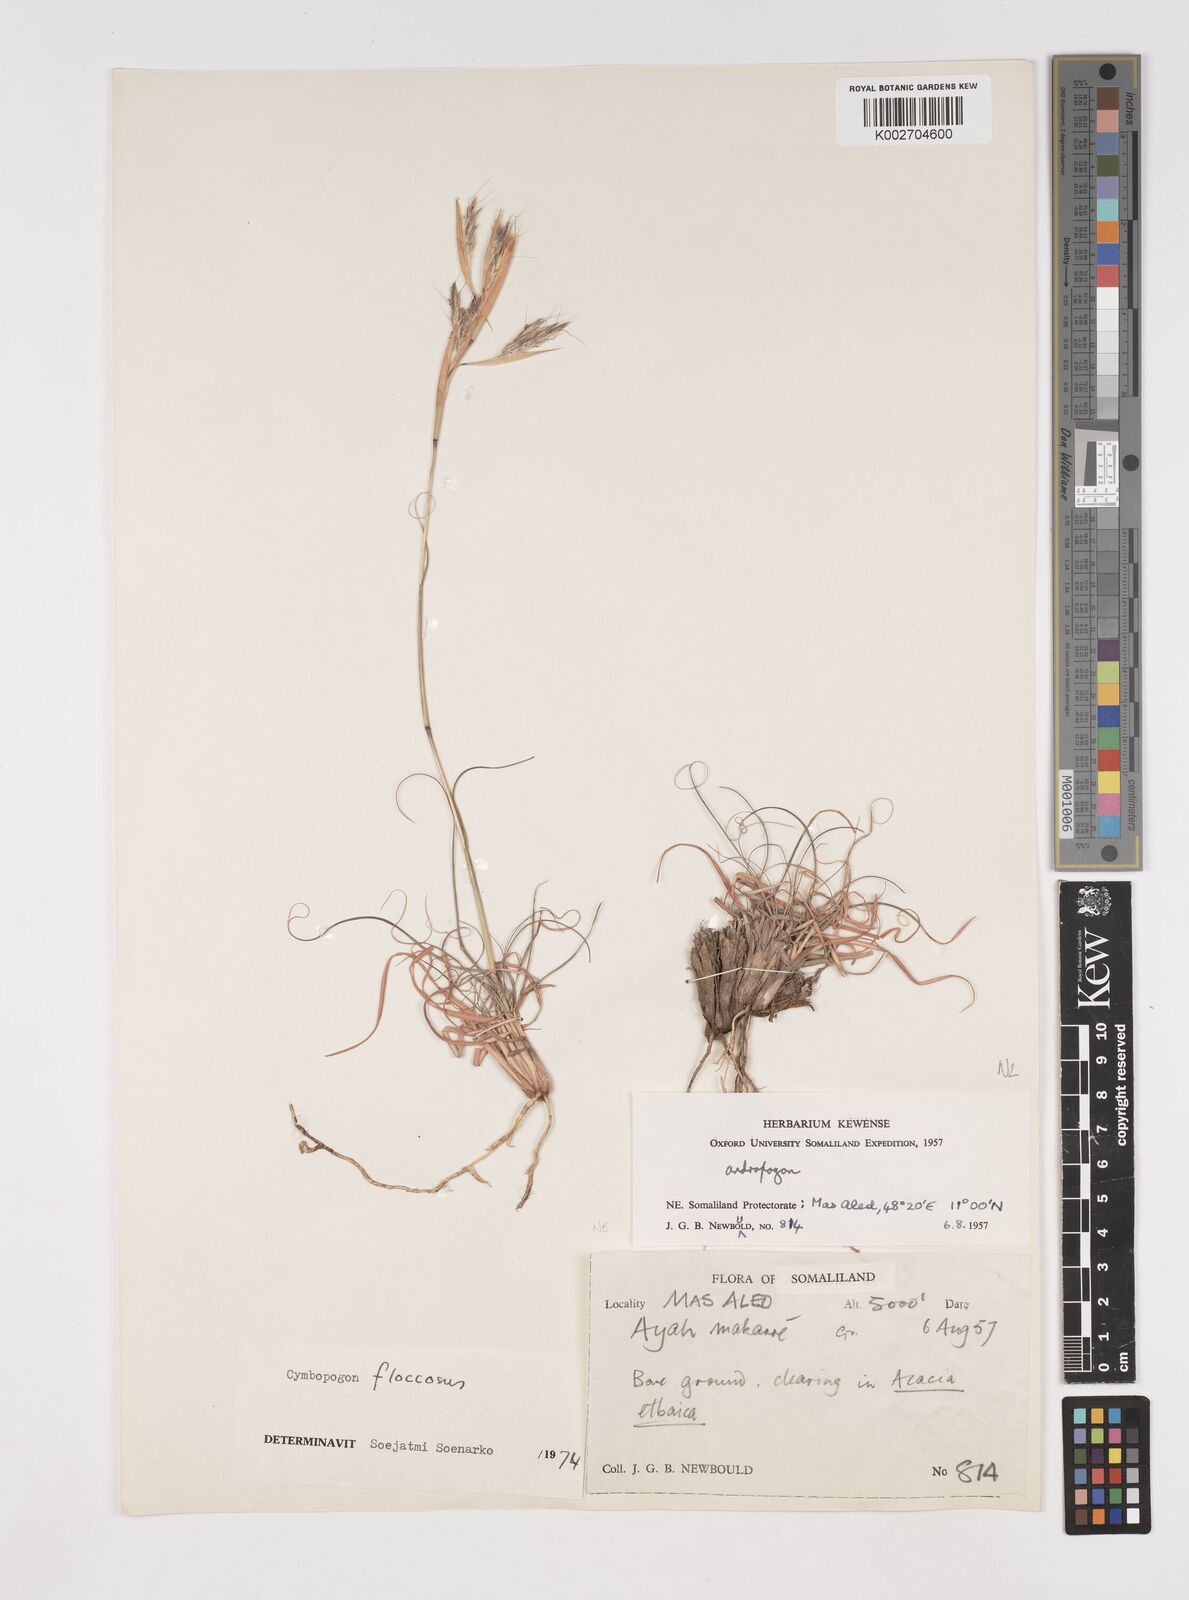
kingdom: Plantae
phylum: Tracheophyta
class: Liliopsida
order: Poales
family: Poaceae
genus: Cymbopogon
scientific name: Cymbopogon commutatus
